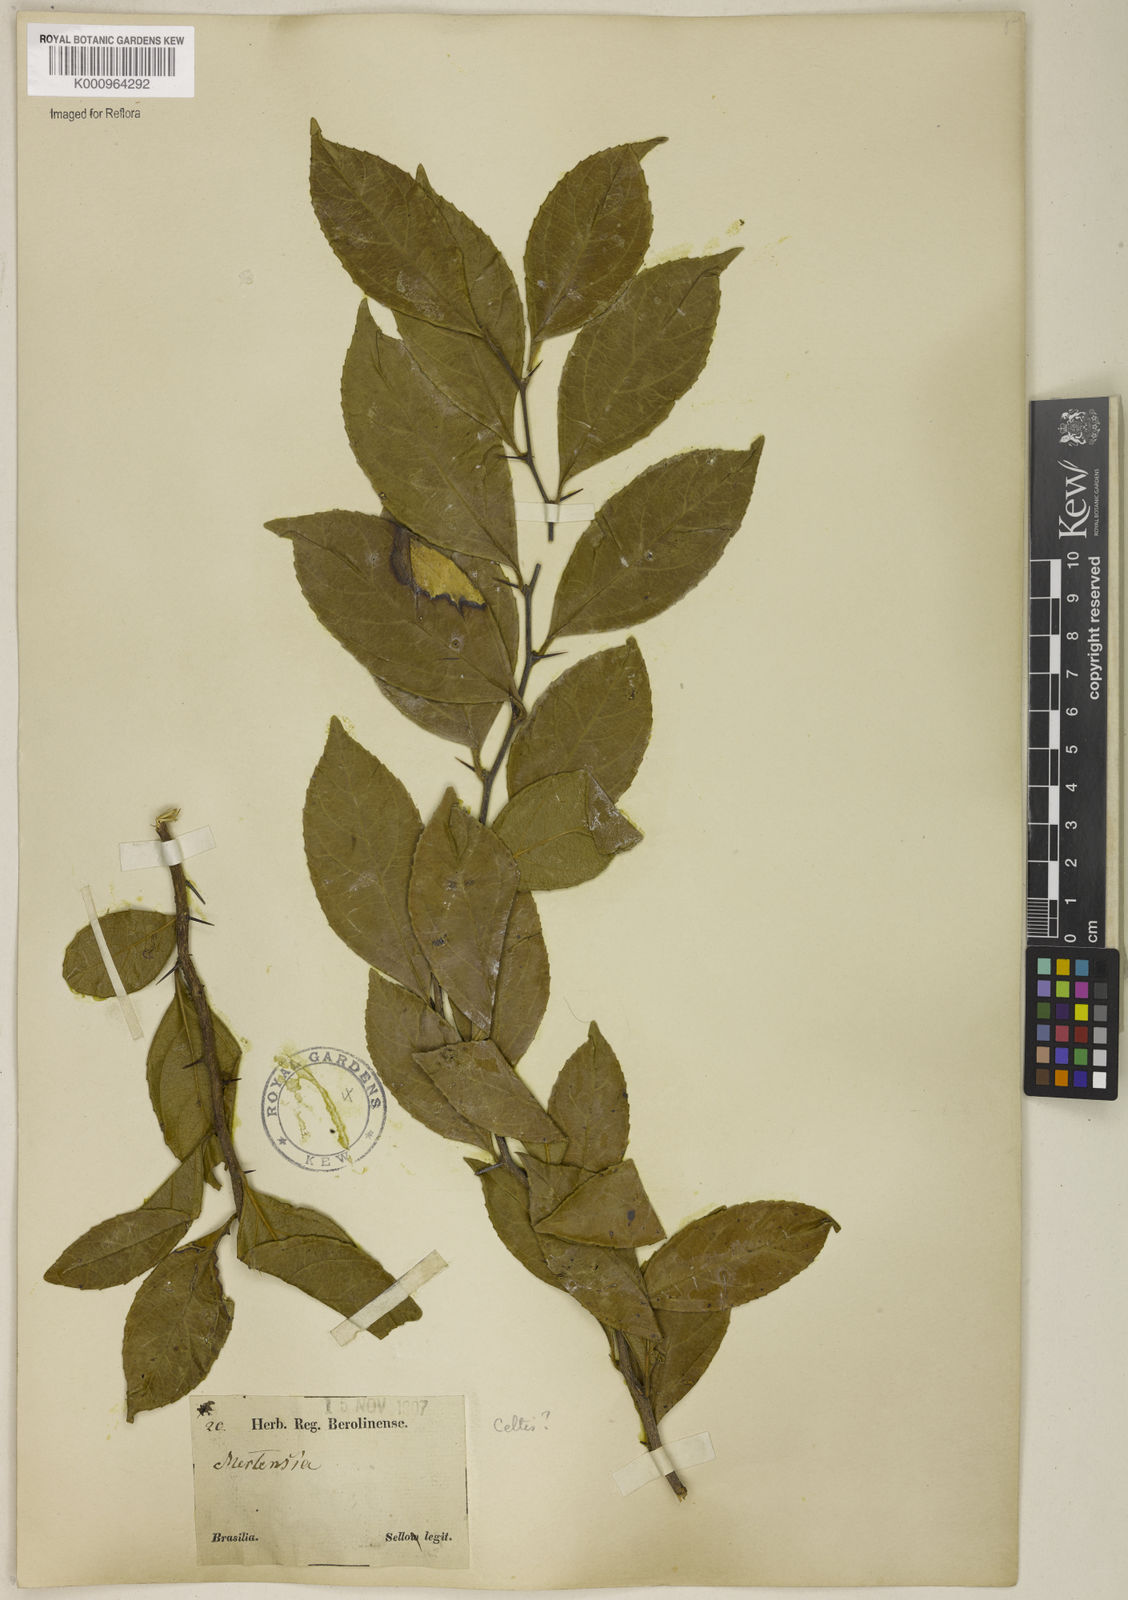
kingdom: Plantae
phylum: Tracheophyta
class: Magnoliopsida
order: Rosales
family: Cannabaceae
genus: Celtis
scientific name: Celtis
